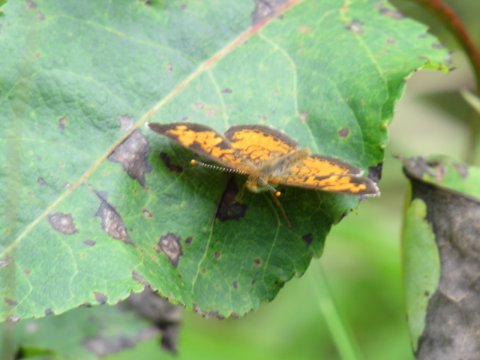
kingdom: Animalia
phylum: Arthropoda
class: Insecta
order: Lepidoptera
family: Nymphalidae
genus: Phyciodes
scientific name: Phyciodes
